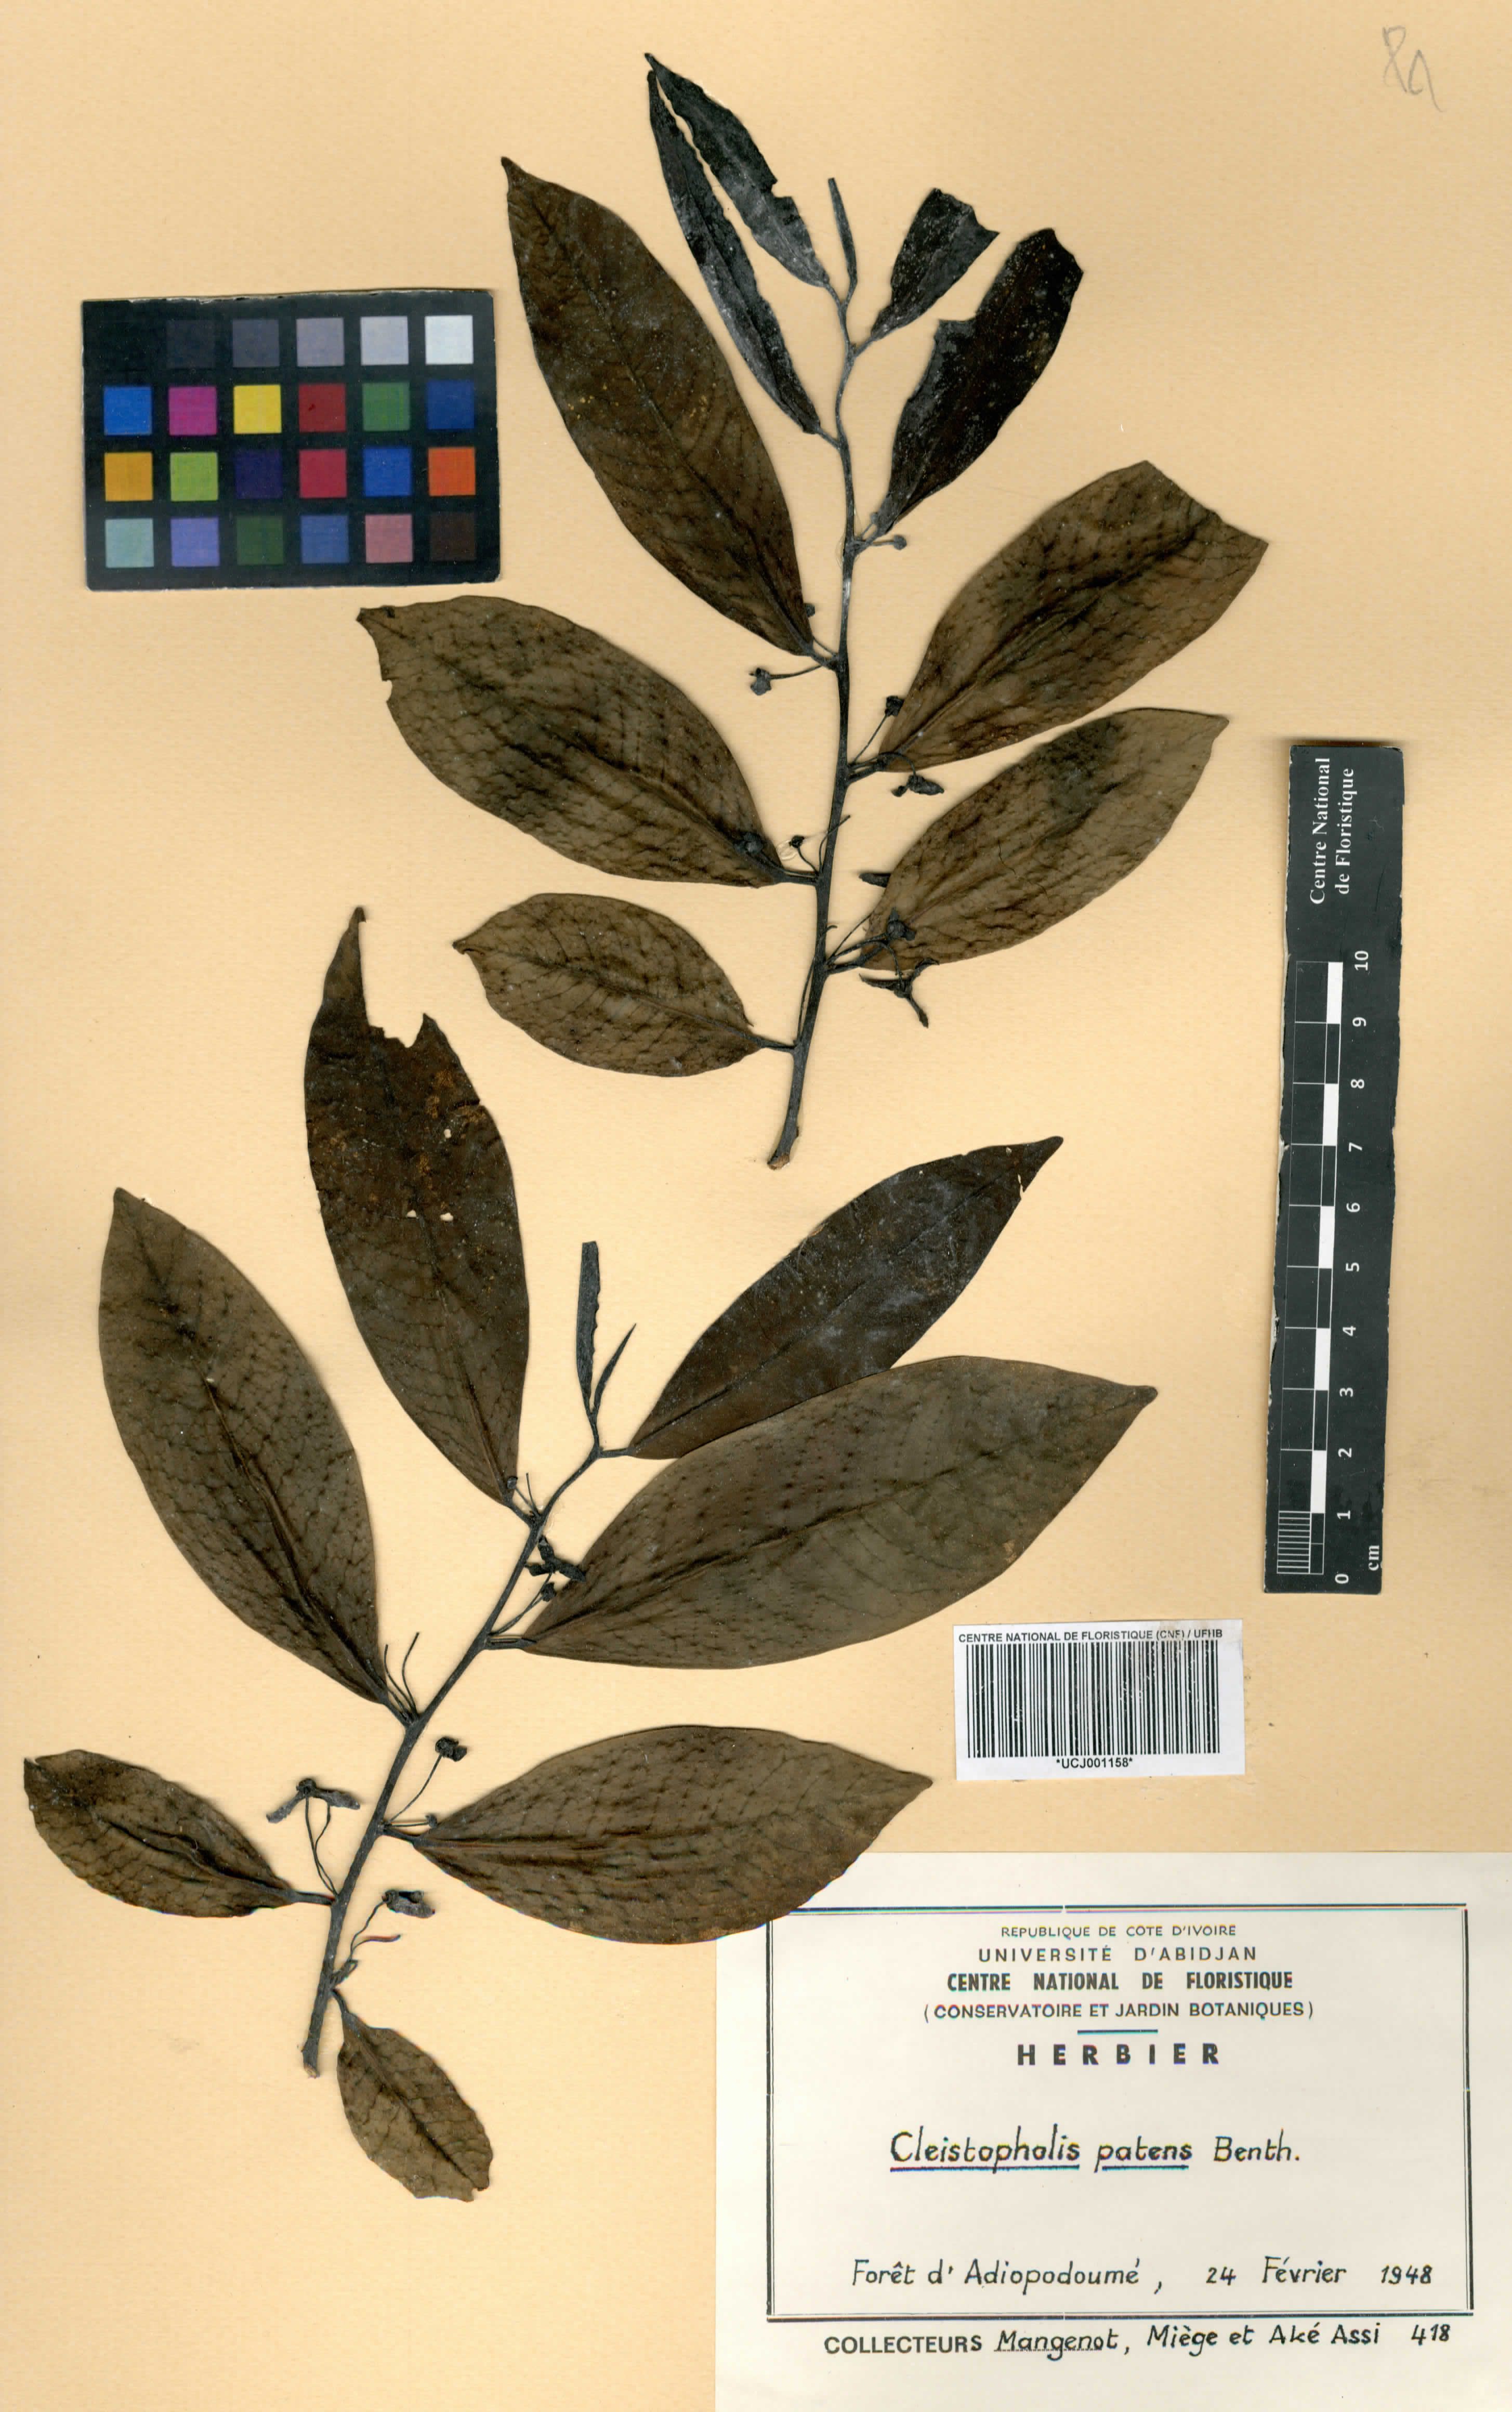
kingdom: Plantae
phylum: Tracheophyta
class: Magnoliopsida
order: Magnoliales
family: Annonaceae
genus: Cleistopholis
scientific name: Cleistopholis patens
